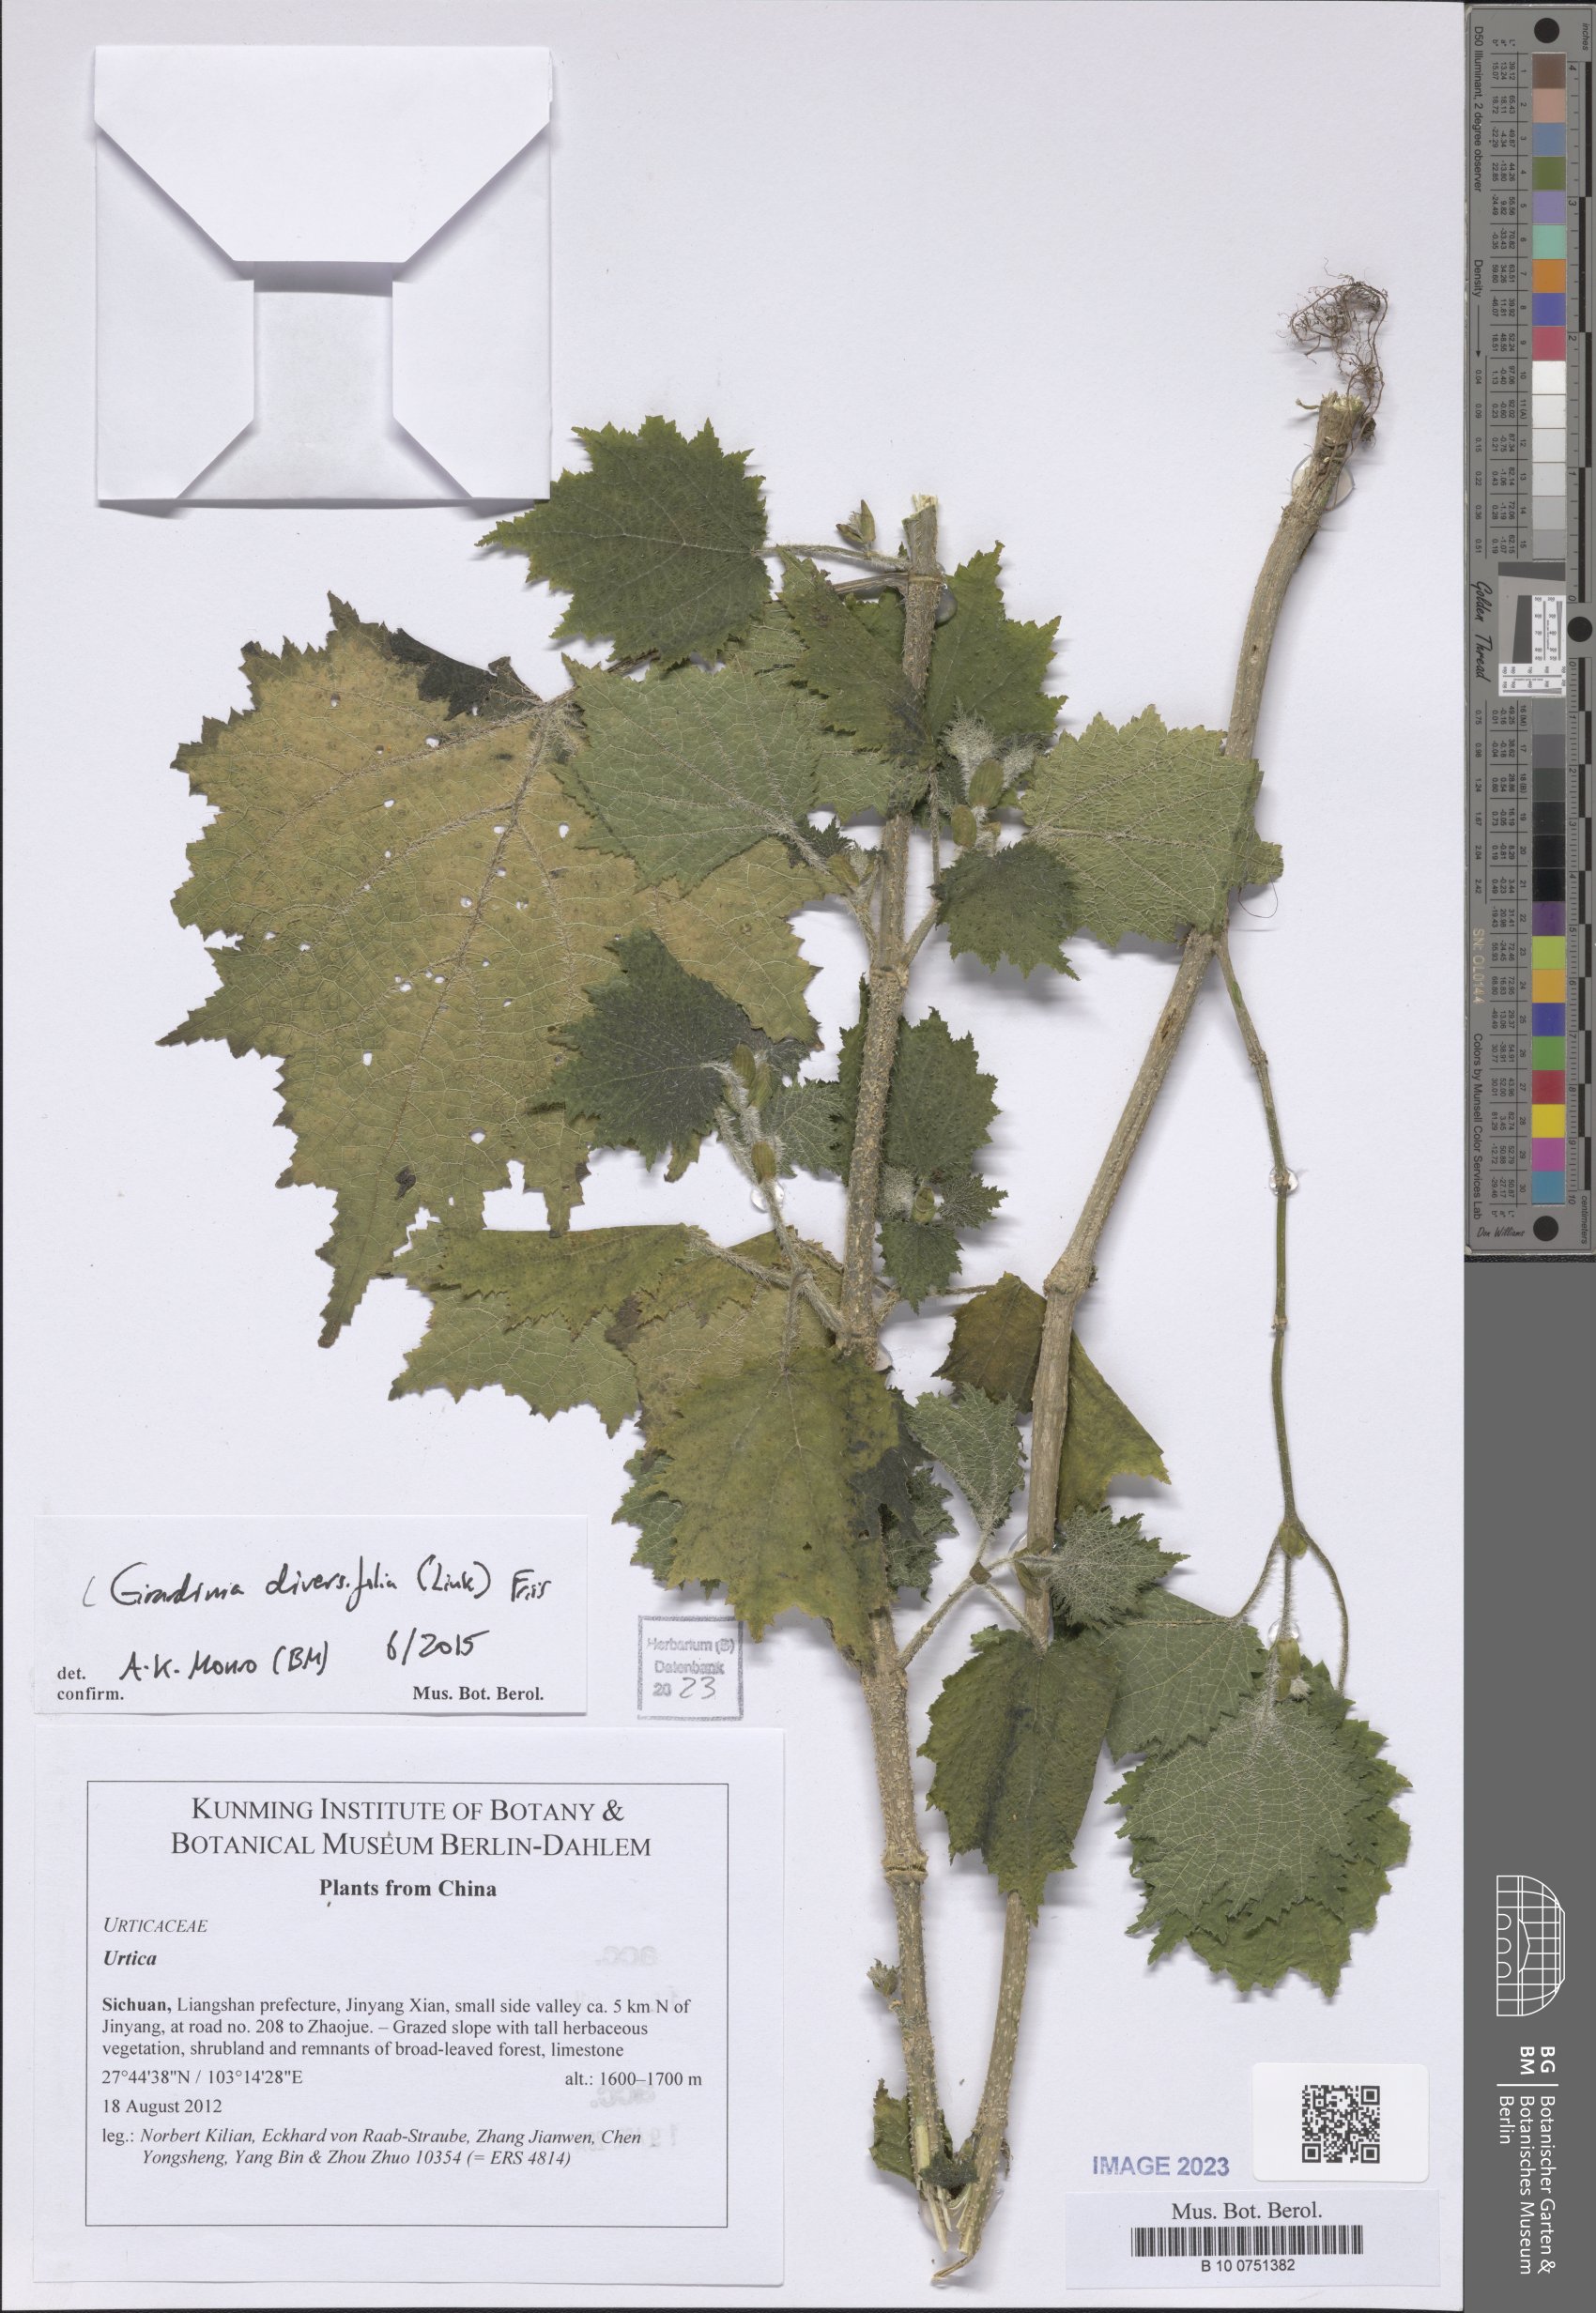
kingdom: Plantae
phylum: Tracheophyta
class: Magnoliopsida
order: Rosales
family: Urticaceae
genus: Girardinia
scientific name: Girardinia diversifolia
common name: Himalayan-nettle
